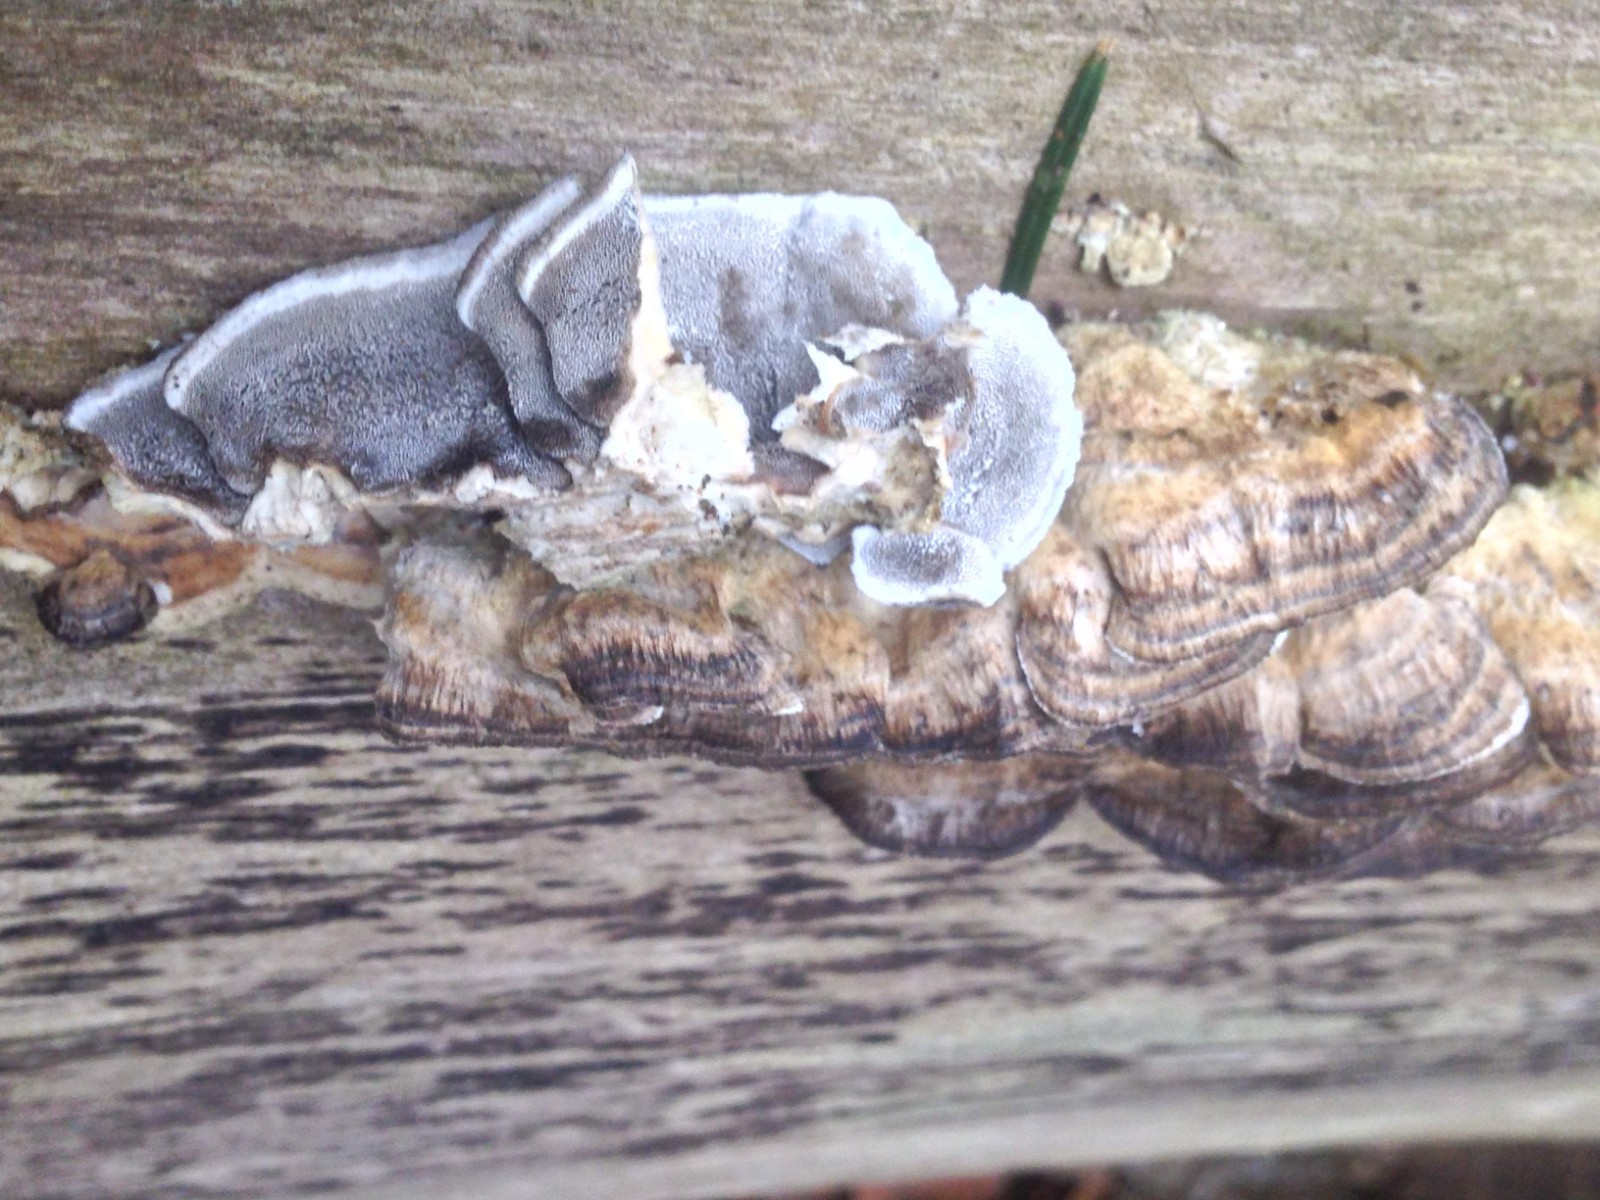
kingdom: Fungi
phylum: Basidiomycota
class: Agaricomycetes
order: Polyporales
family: Phanerochaetaceae
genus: Bjerkandera
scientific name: Bjerkandera adusta
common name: sveden sodporesvamp
